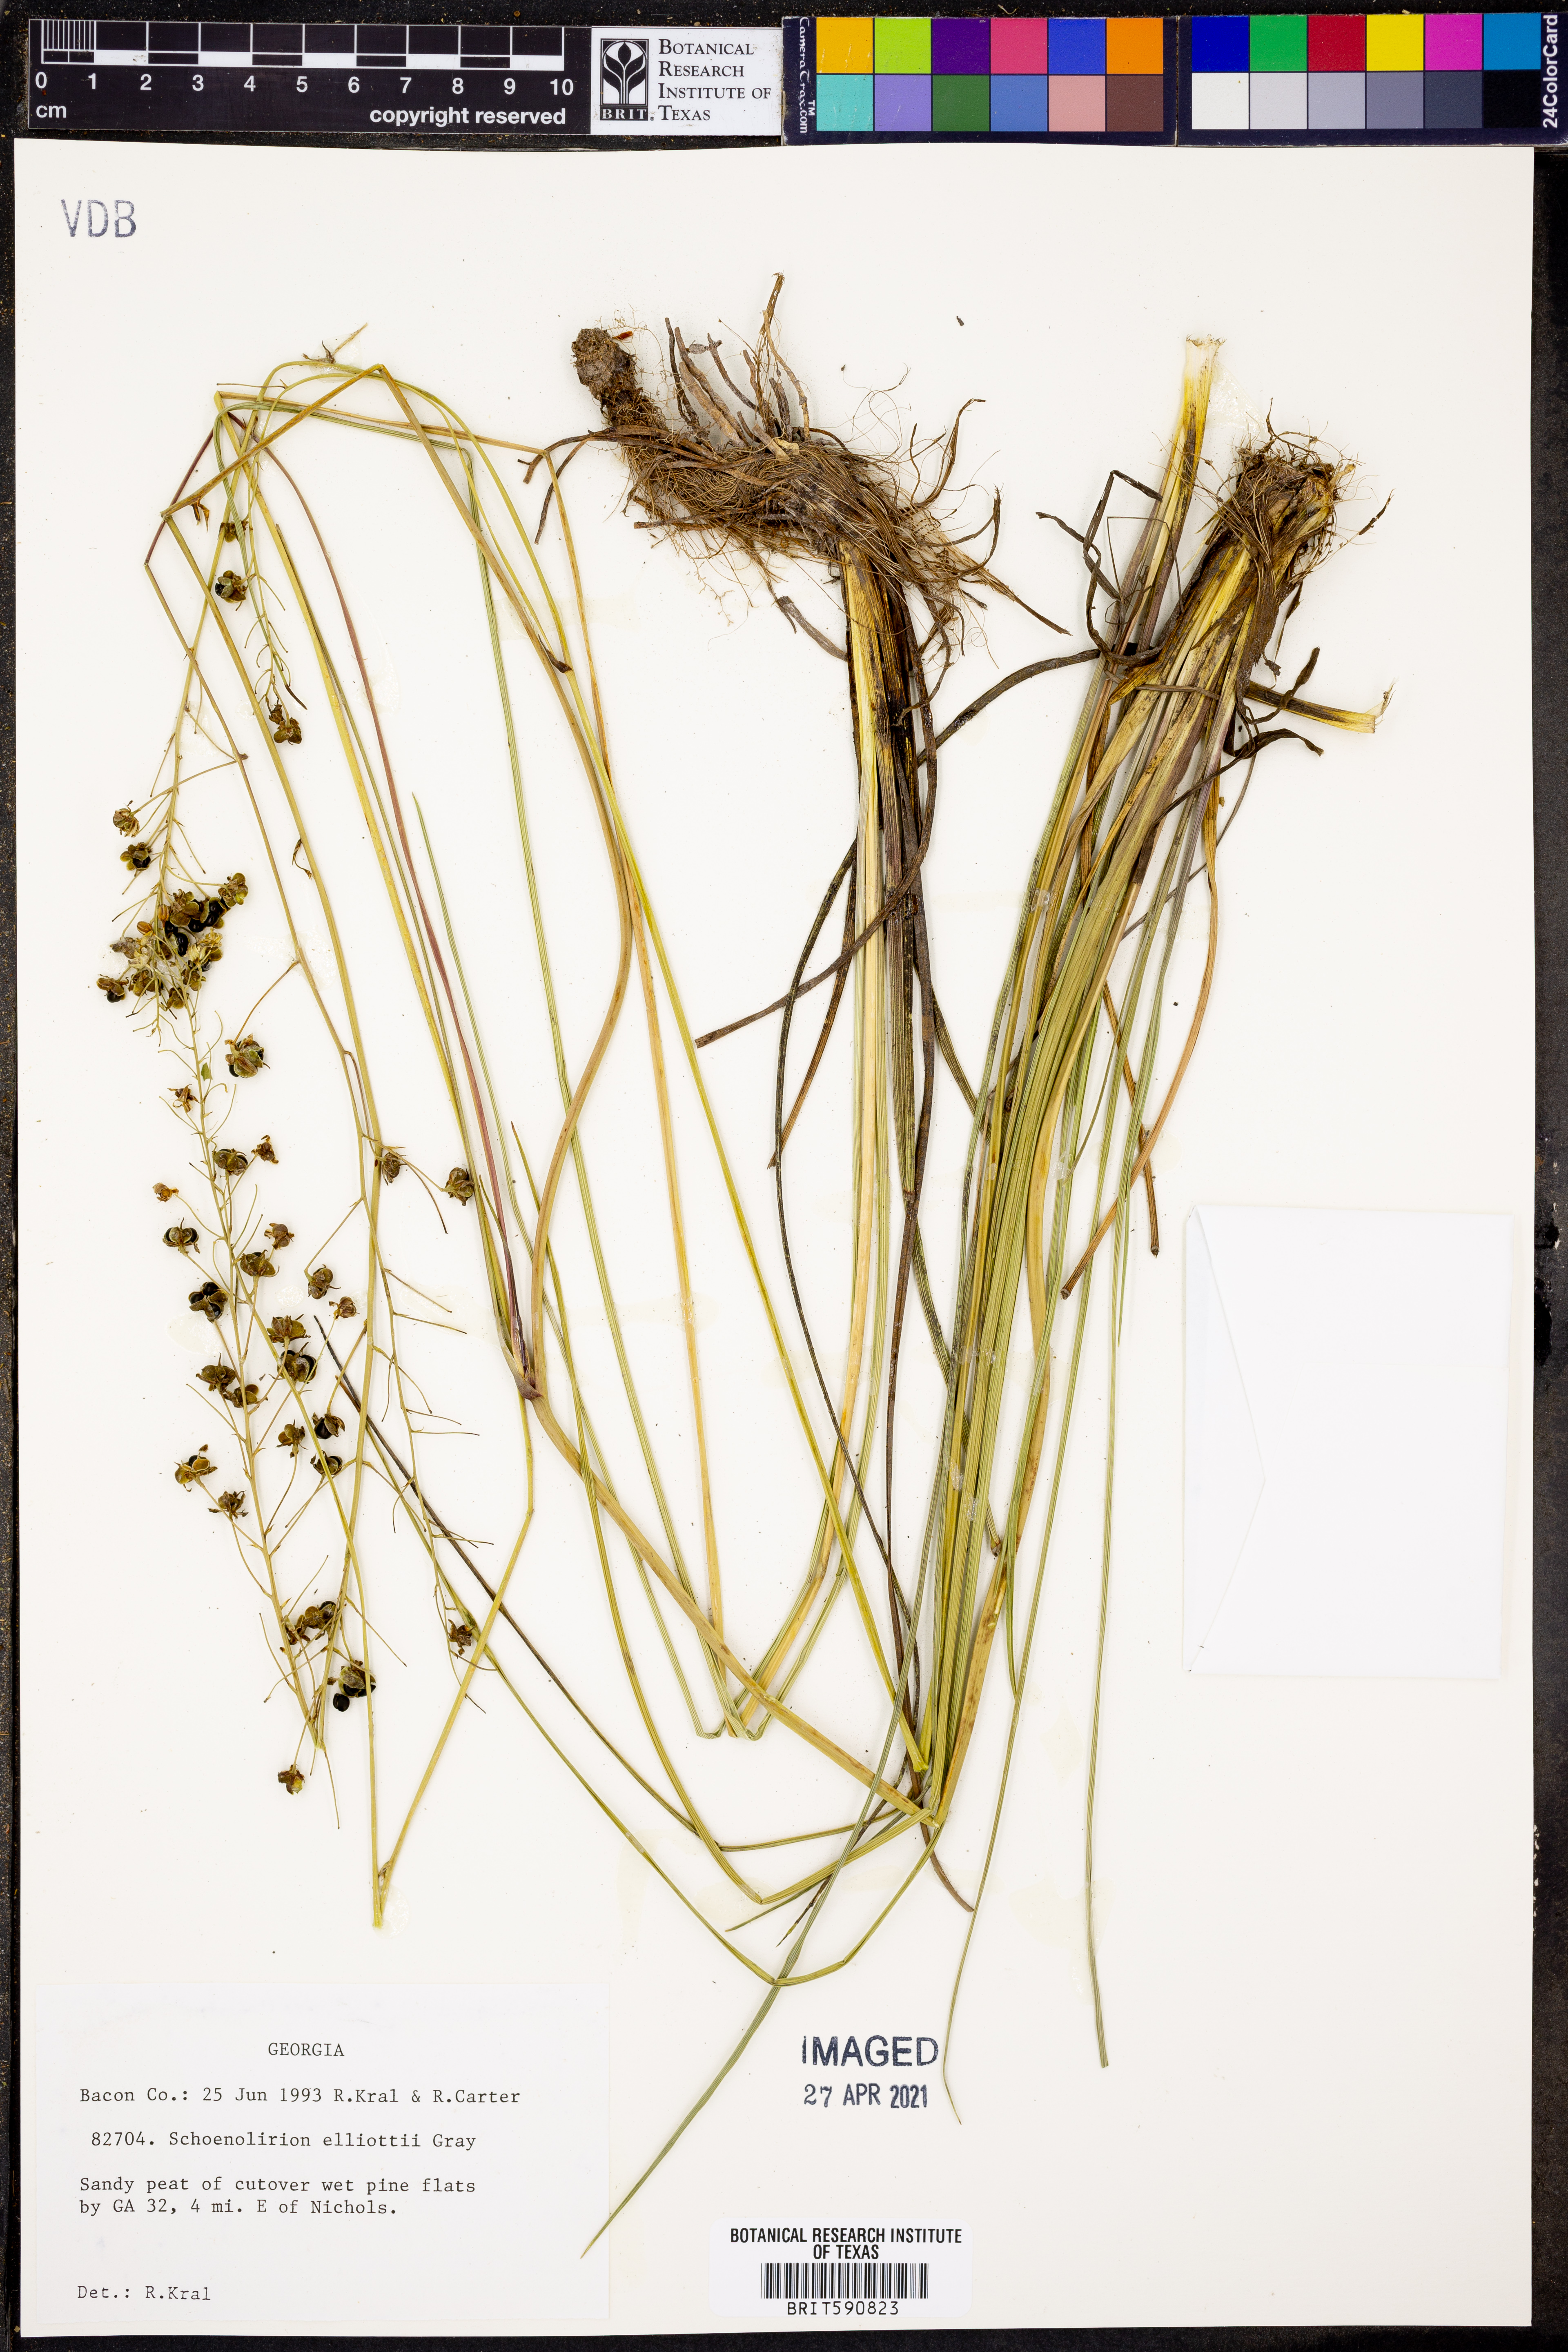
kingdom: Plantae
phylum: Tracheophyta
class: Liliopsida
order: Asparagales
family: Asparagaceae
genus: Schoenolirion
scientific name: Schoenolirion albiflorum
